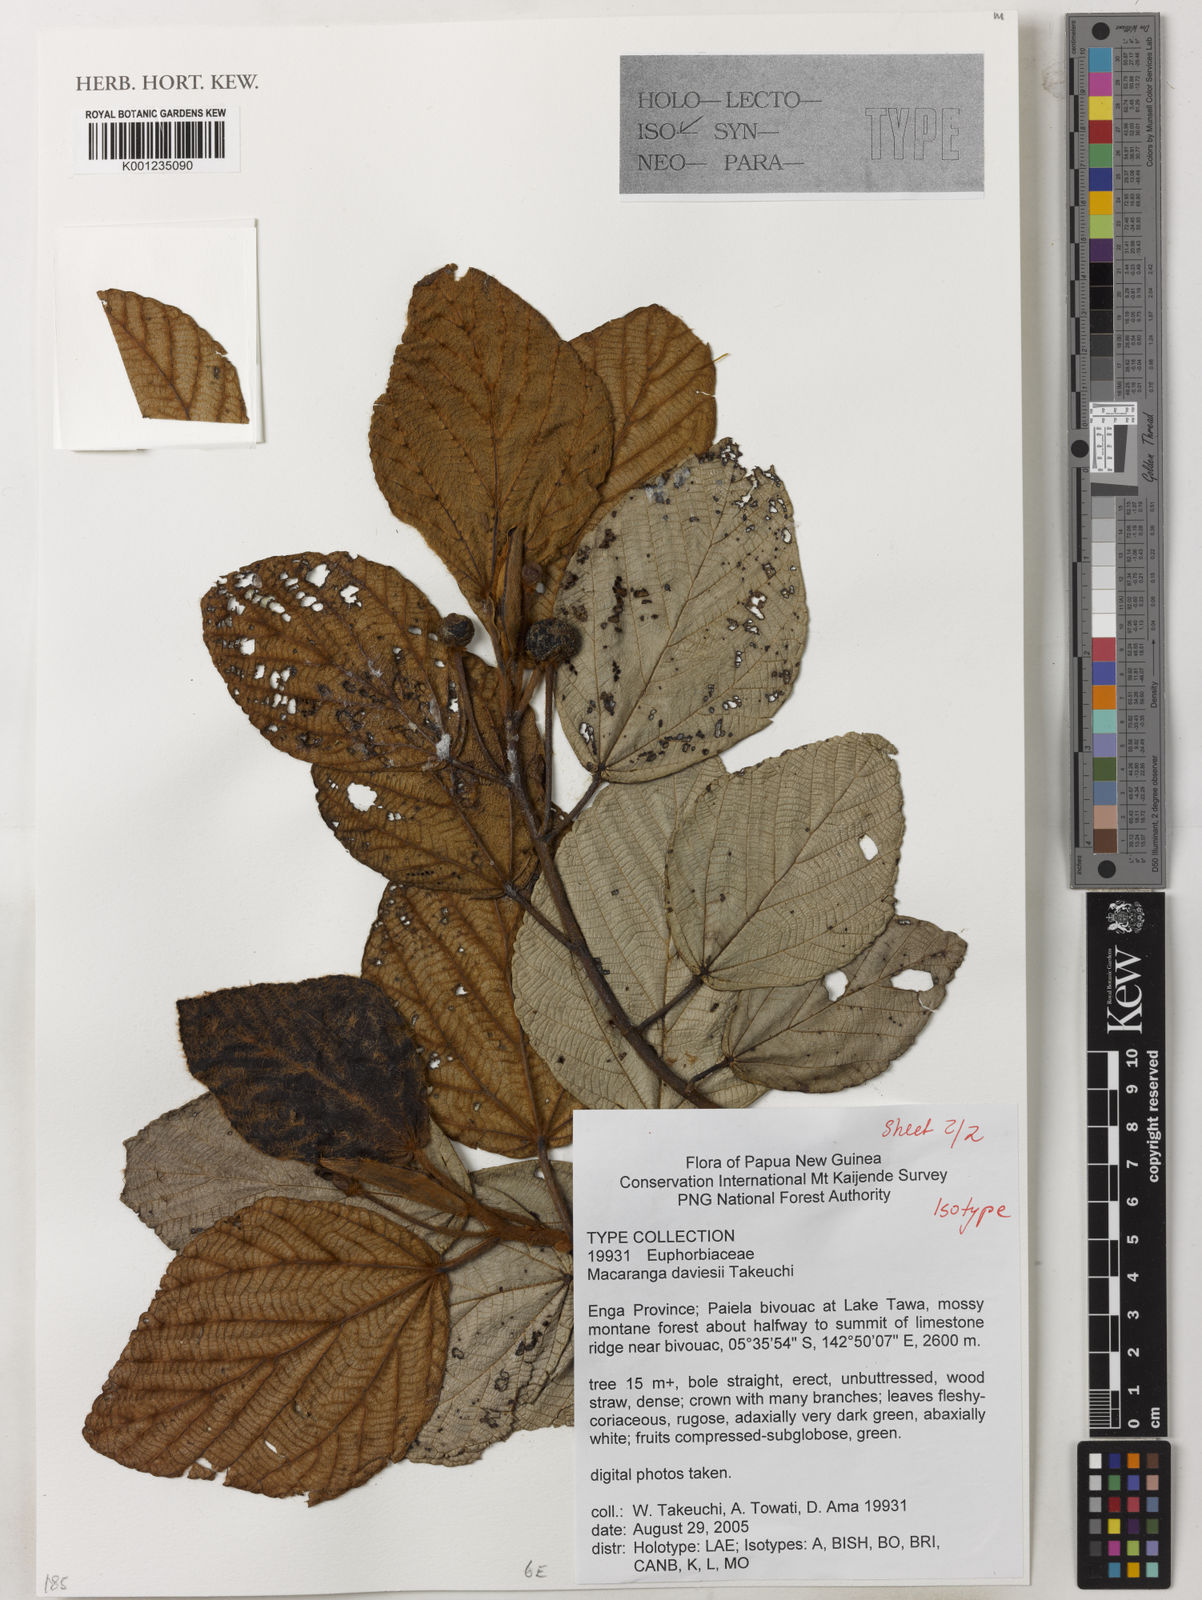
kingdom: Plantae
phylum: Tracheophyta
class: Magnoliopsida
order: Malpighiales
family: Euphorbiaceae
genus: Macaranga
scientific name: Macaranga daviesii
